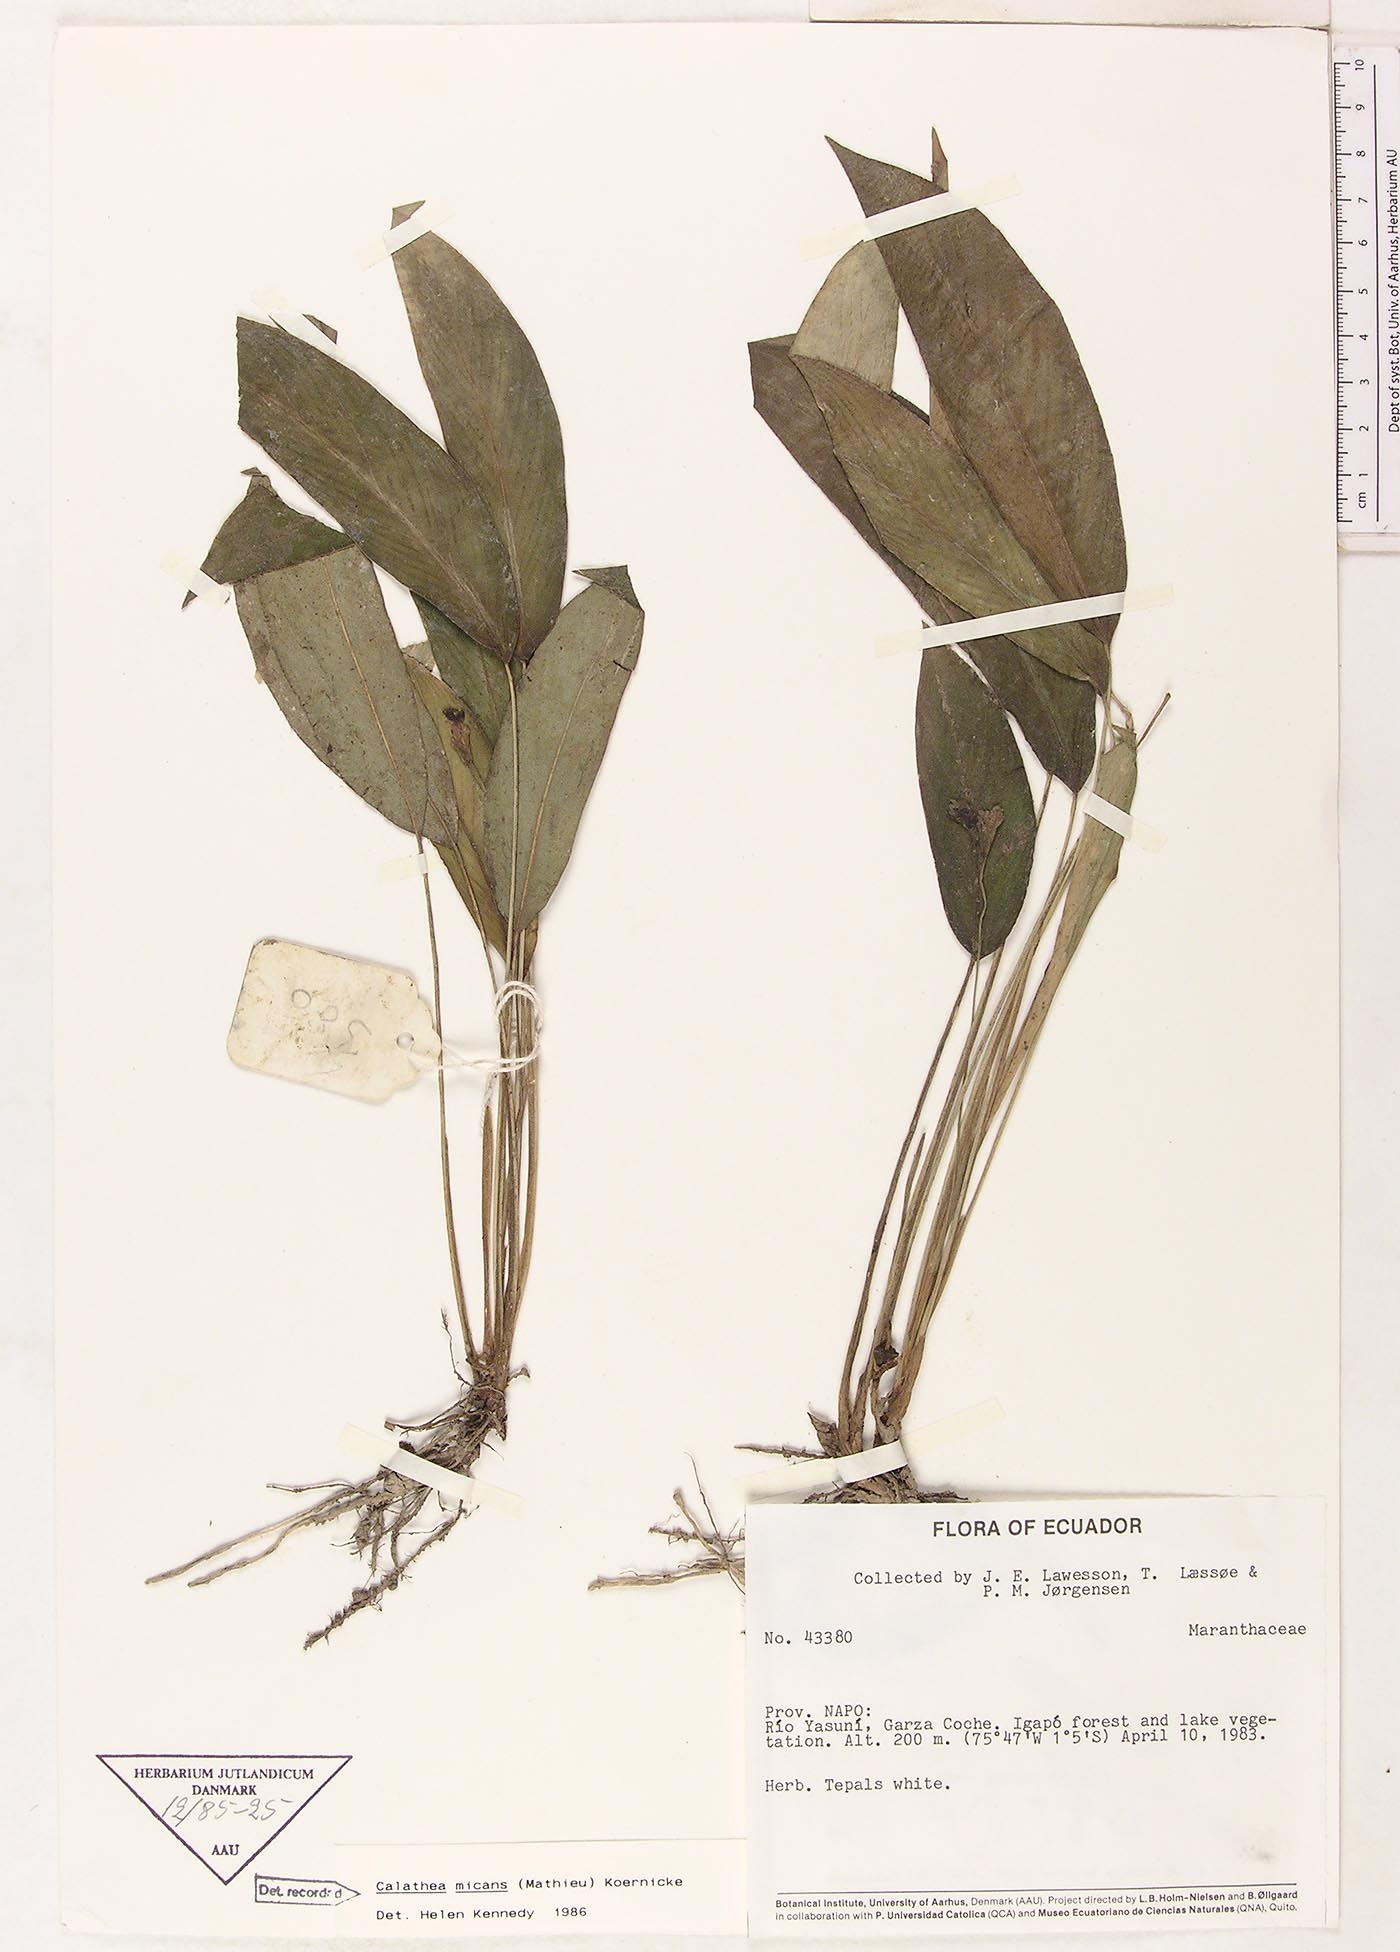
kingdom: Plantae
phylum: Tracheophyta
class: Liliopsida
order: Zingiberales
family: Marantaceae
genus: Goeppertia
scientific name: Goeppertia micans
